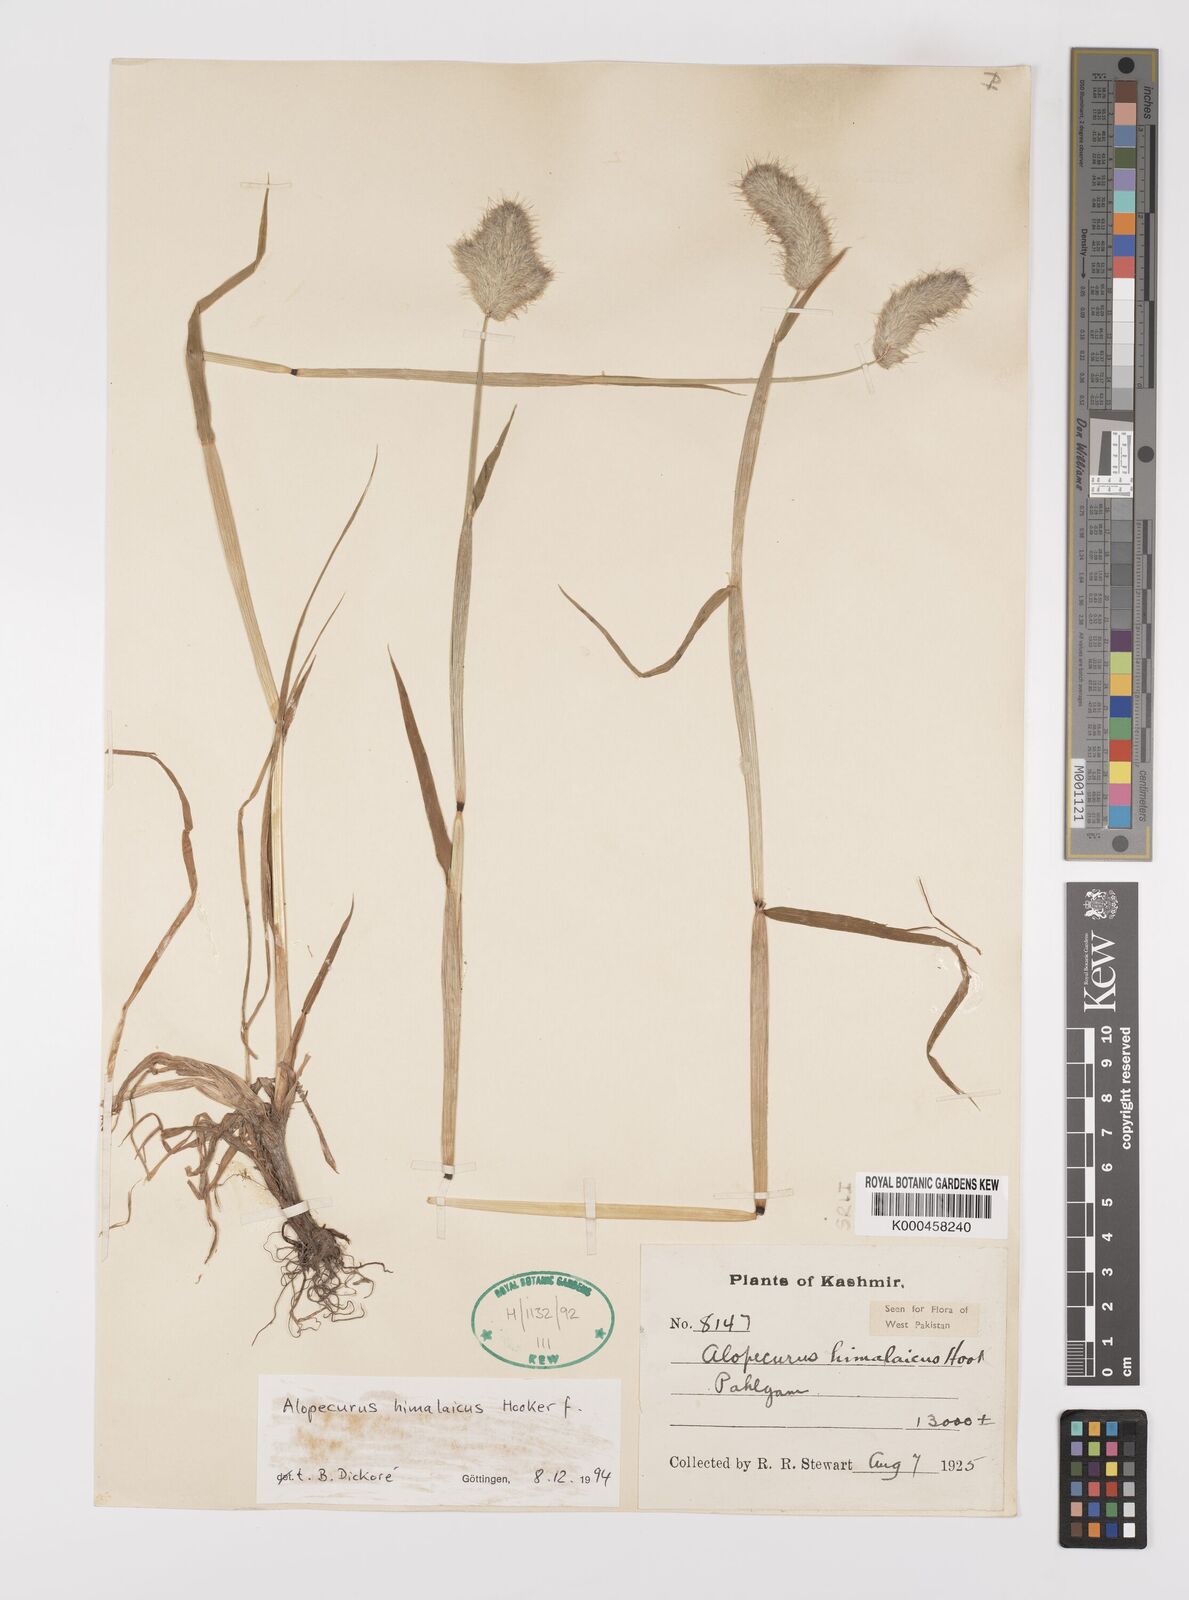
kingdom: Plantae
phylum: Tracheophyta
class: Liliopsida
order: Poales
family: Poaceae
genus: Alopecurus
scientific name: Alopecurus himalaicus
